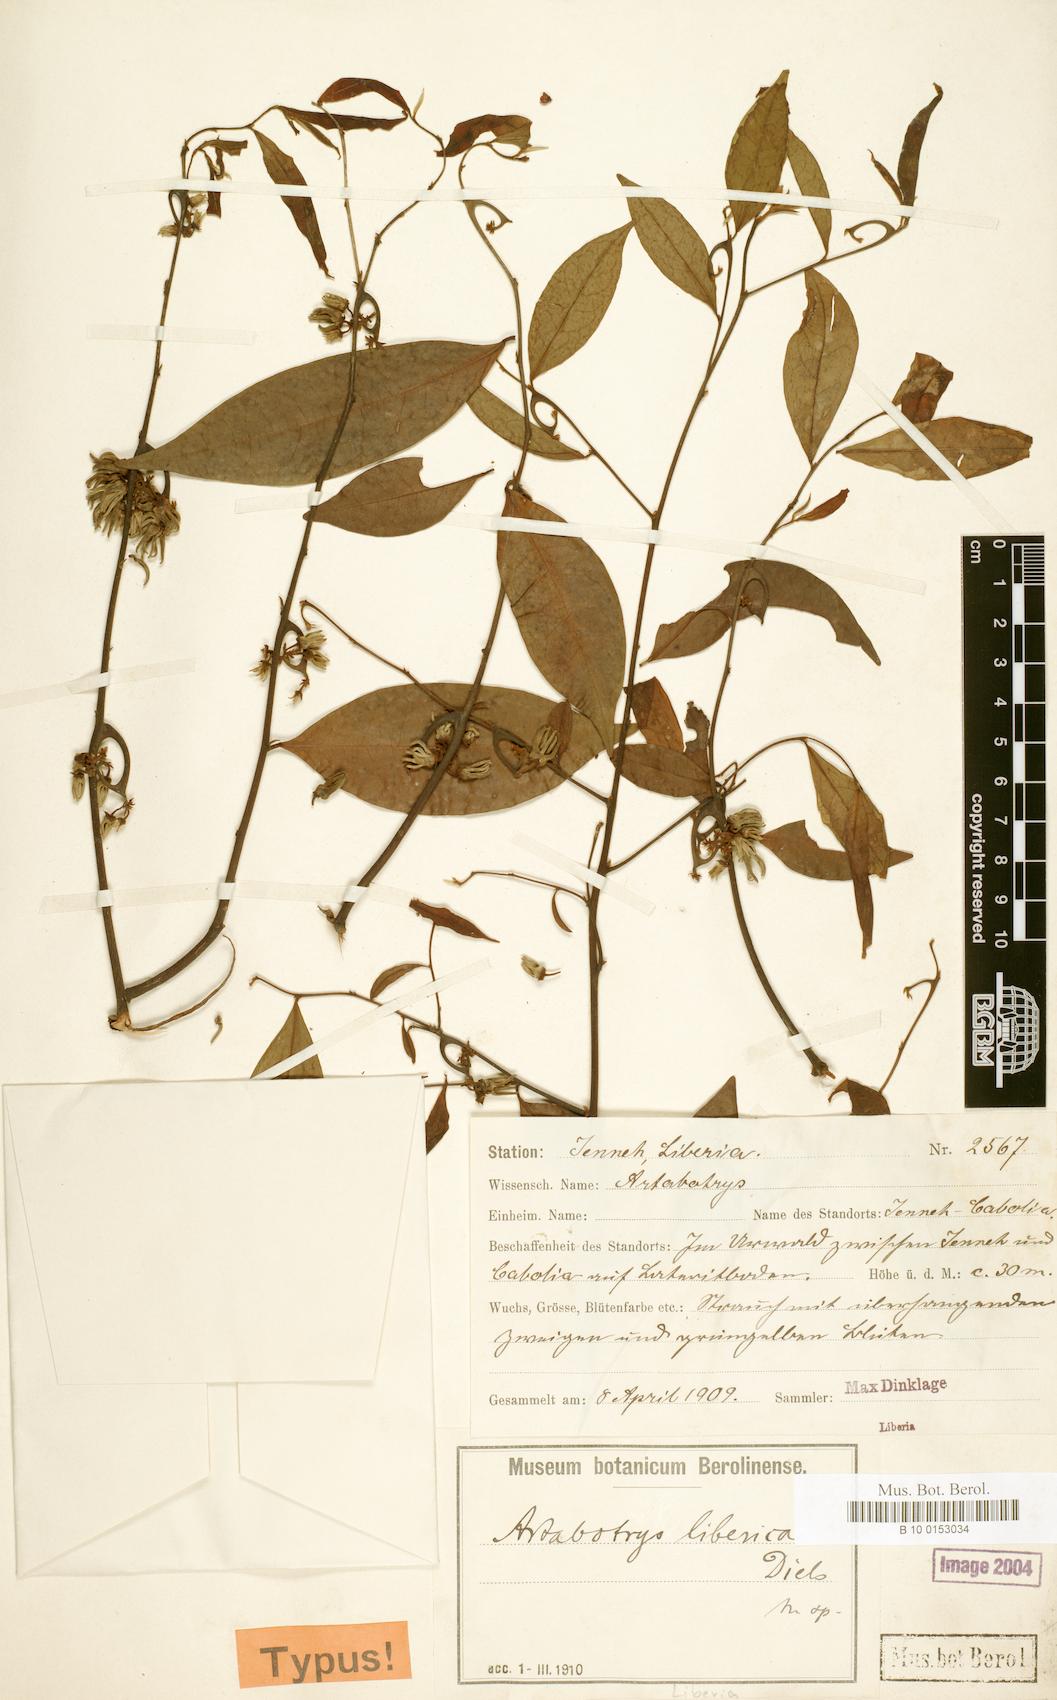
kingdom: Plantae
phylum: Tracheophyta
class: Magnoliopsida
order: Magnoliales
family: Annonaceae
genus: Artabotrys
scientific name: Artabotrys libericus
